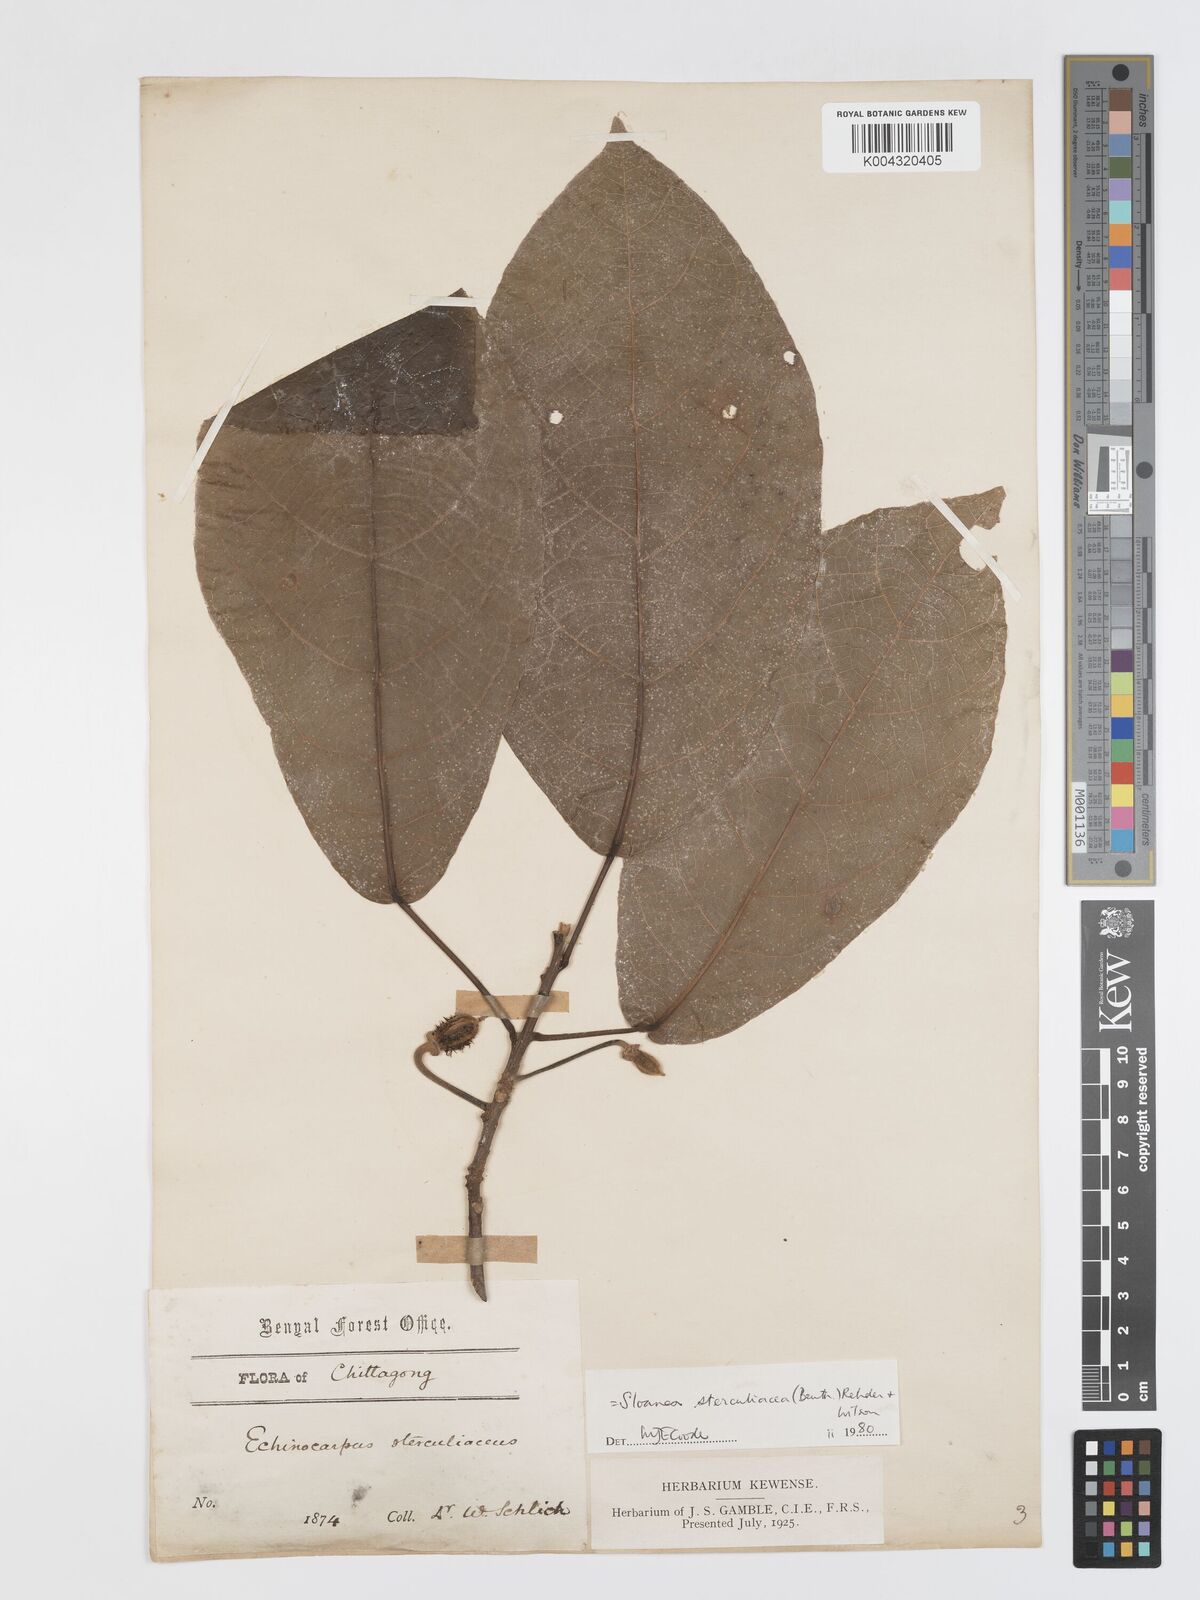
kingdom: Plantae
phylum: Tracheophyta
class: Magnoliopsida
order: Oxalidales
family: Elaeocarpaceae
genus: Sloanea
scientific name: Sloanea sterculiacea
